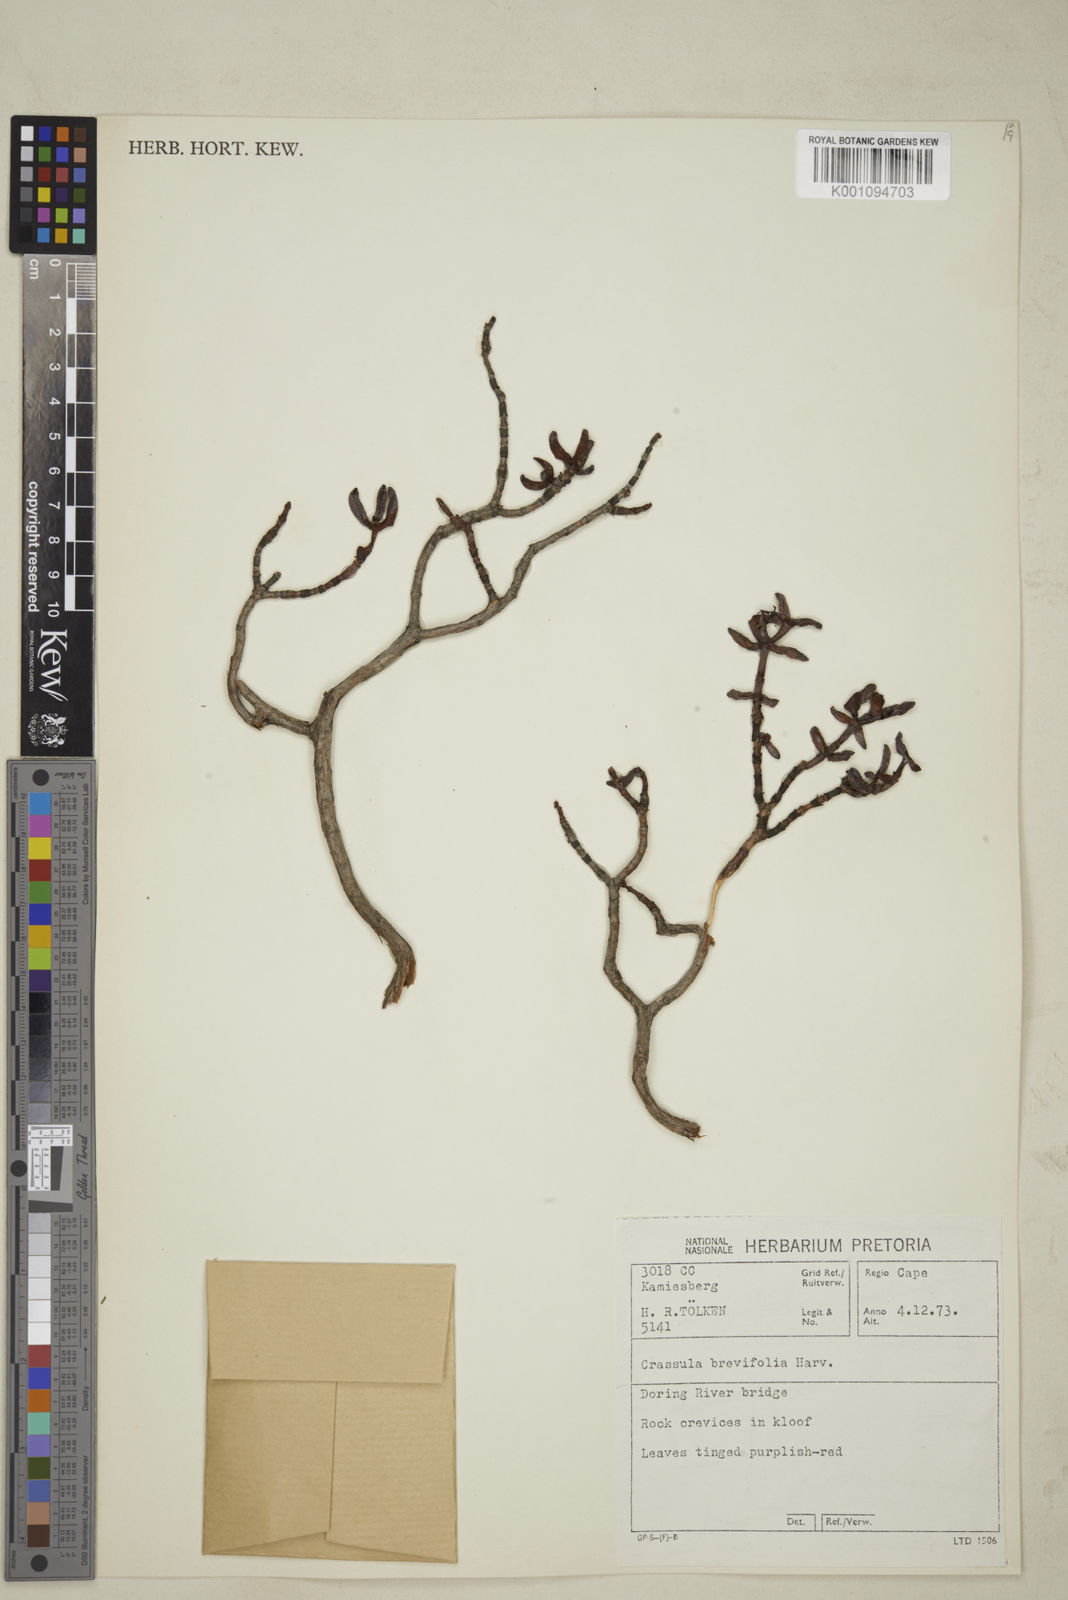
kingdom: Plantae
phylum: Tracheophyta
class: Magnoliopsida
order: Saxifragales
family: Crassulaceae
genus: Crassula
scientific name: Crassula brevifolia
